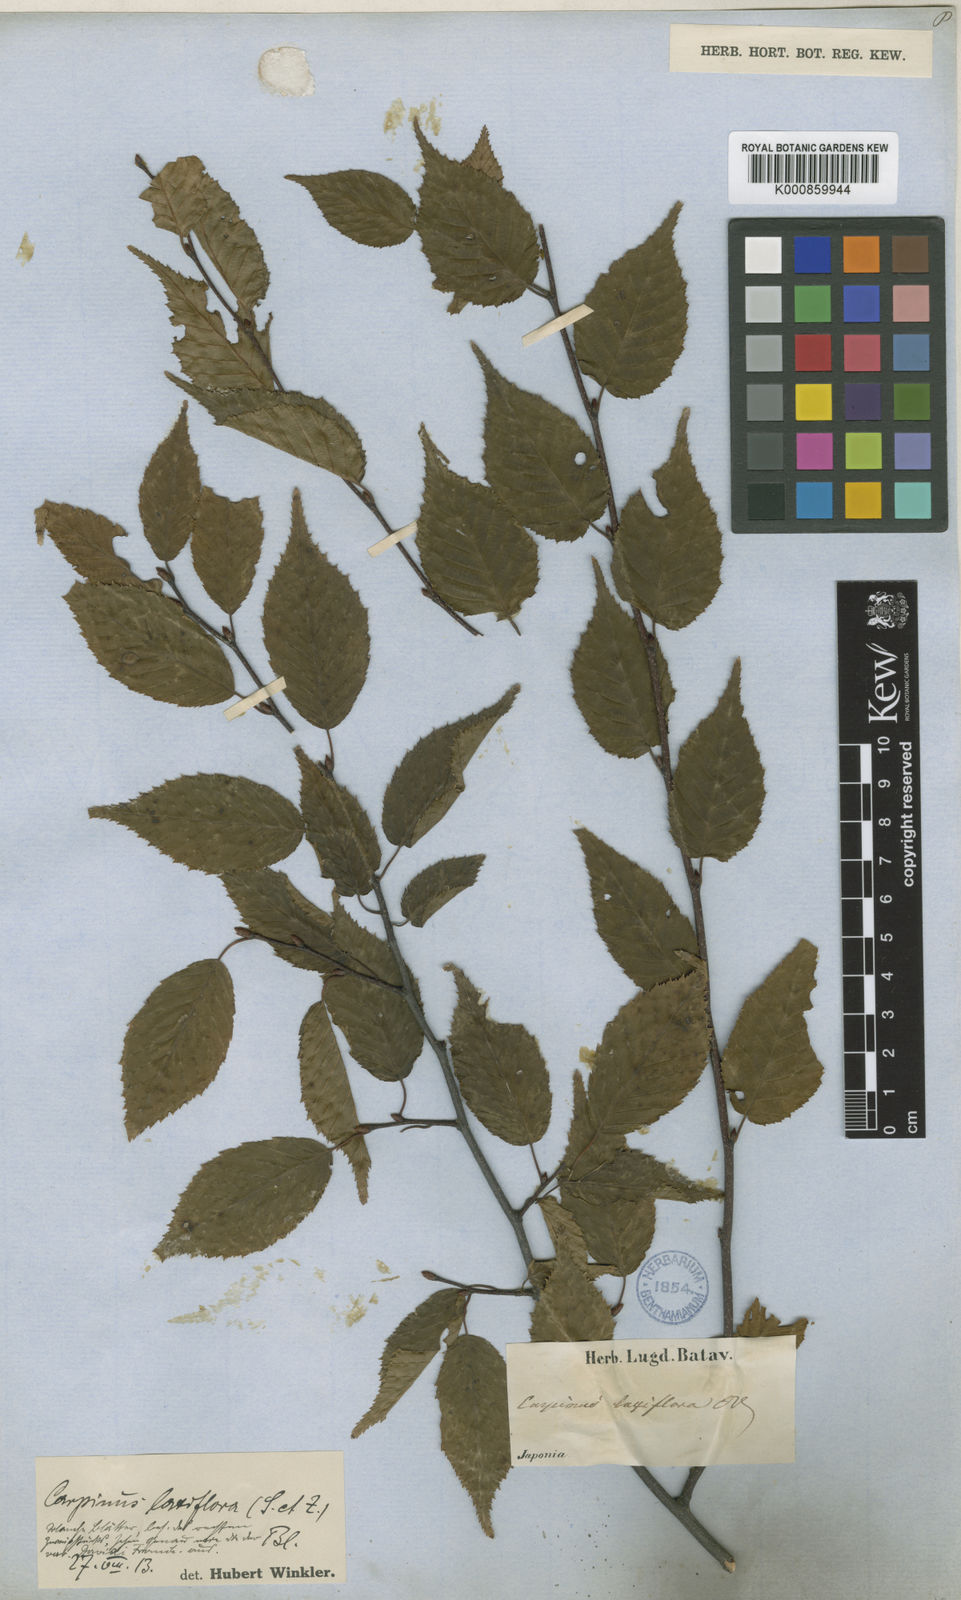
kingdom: Plantae
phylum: Tracheophyta
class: Magnoliopsida
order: Fagales
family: Betulaceae
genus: Carpinus
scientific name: Carpinus laxiflora
